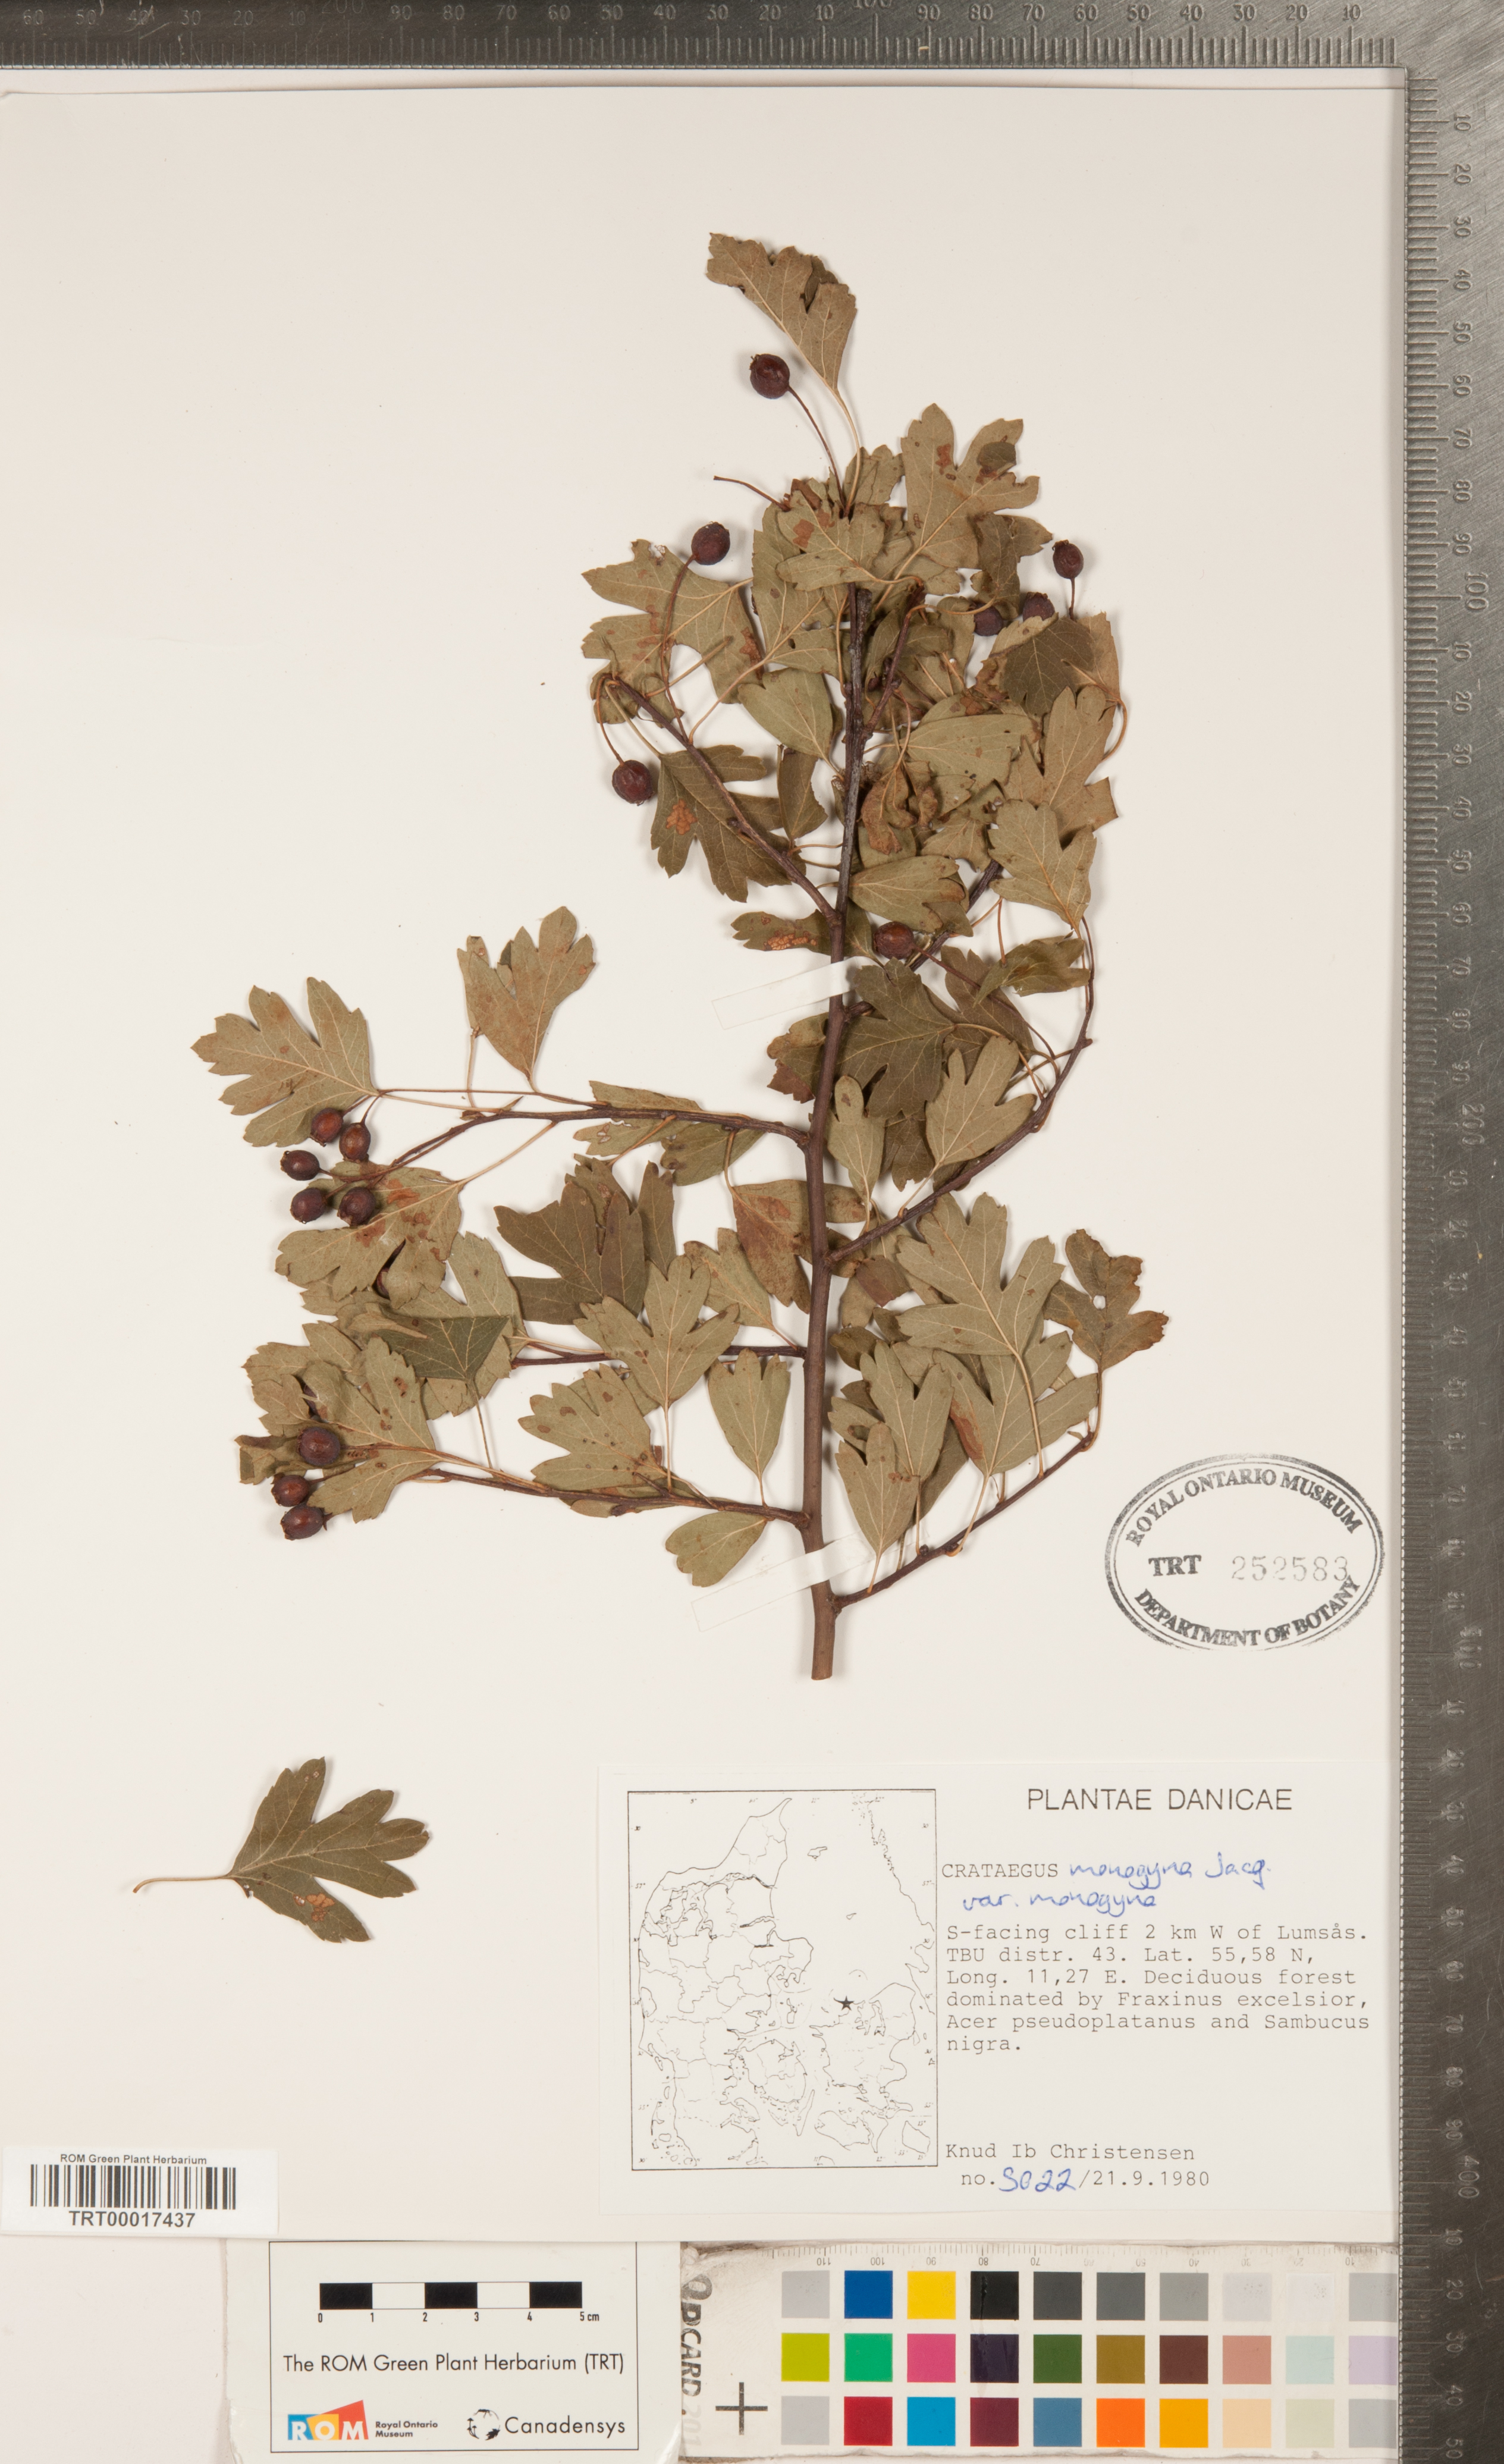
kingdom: Plantae
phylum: Tracheophyta
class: Magnoliopsida
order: Rosales
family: Rosaceae
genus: Crataegus
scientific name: Crataegus monogyna
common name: Hawthorn
